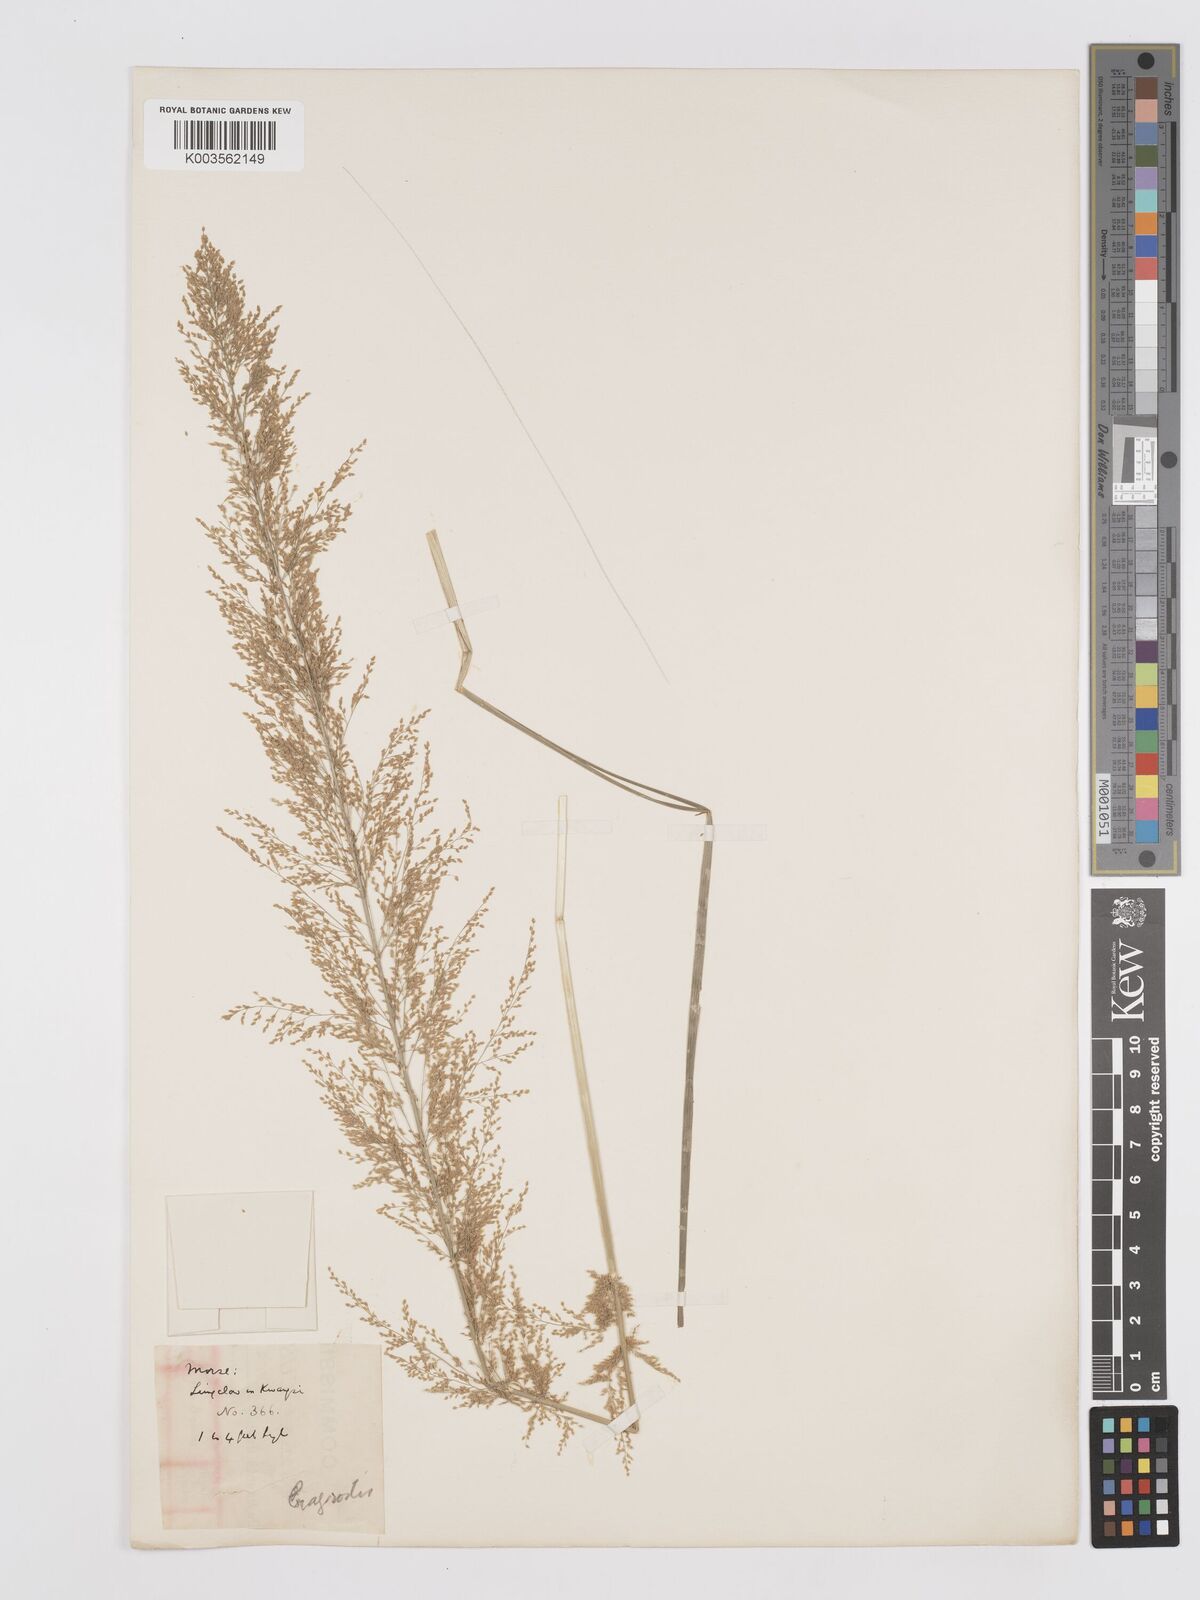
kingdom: Plantae
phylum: Tracheophyta
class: Liliopsida
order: Poales
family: Poaceae
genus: Eragrostis
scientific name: Eragrostis japonica
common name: Pond lovegrass
